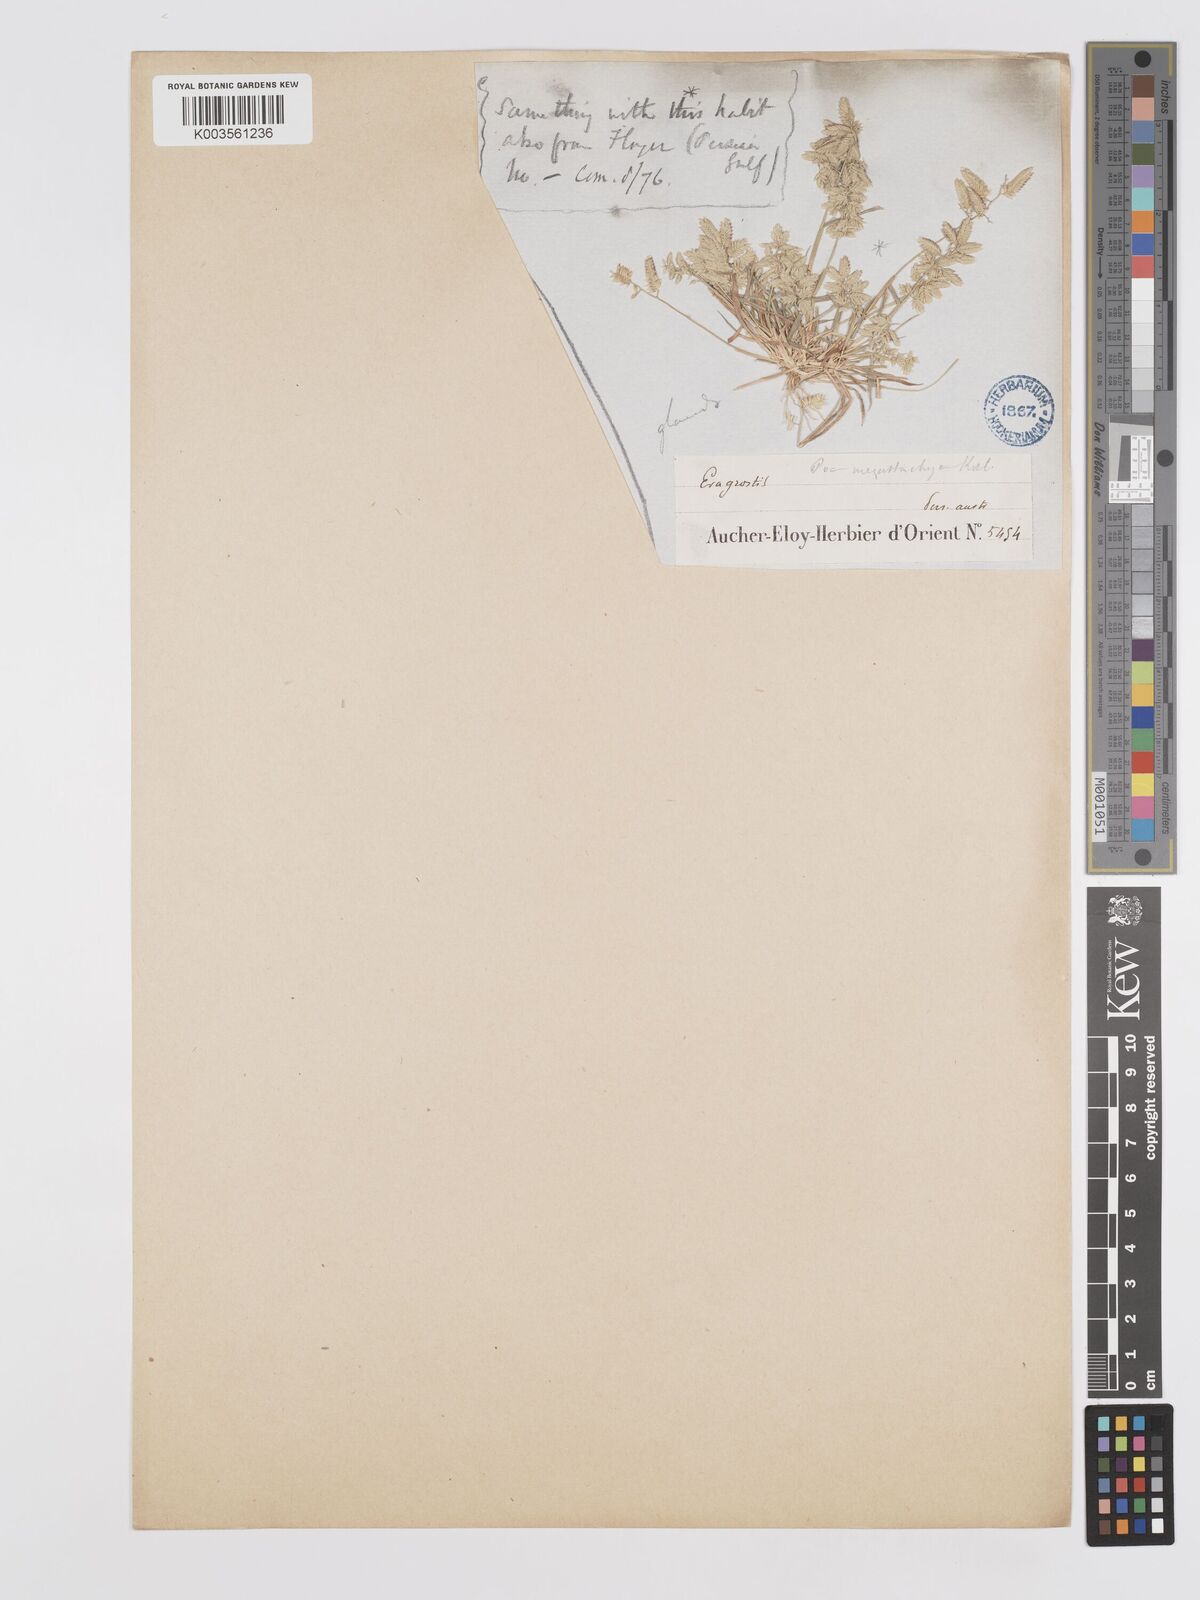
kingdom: Plantae
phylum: Tracheophyta
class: Liliopsida
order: Poales
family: Poaceae
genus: Eragrostis
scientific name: Eragrostis cilianensis
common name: Stinkgrass
